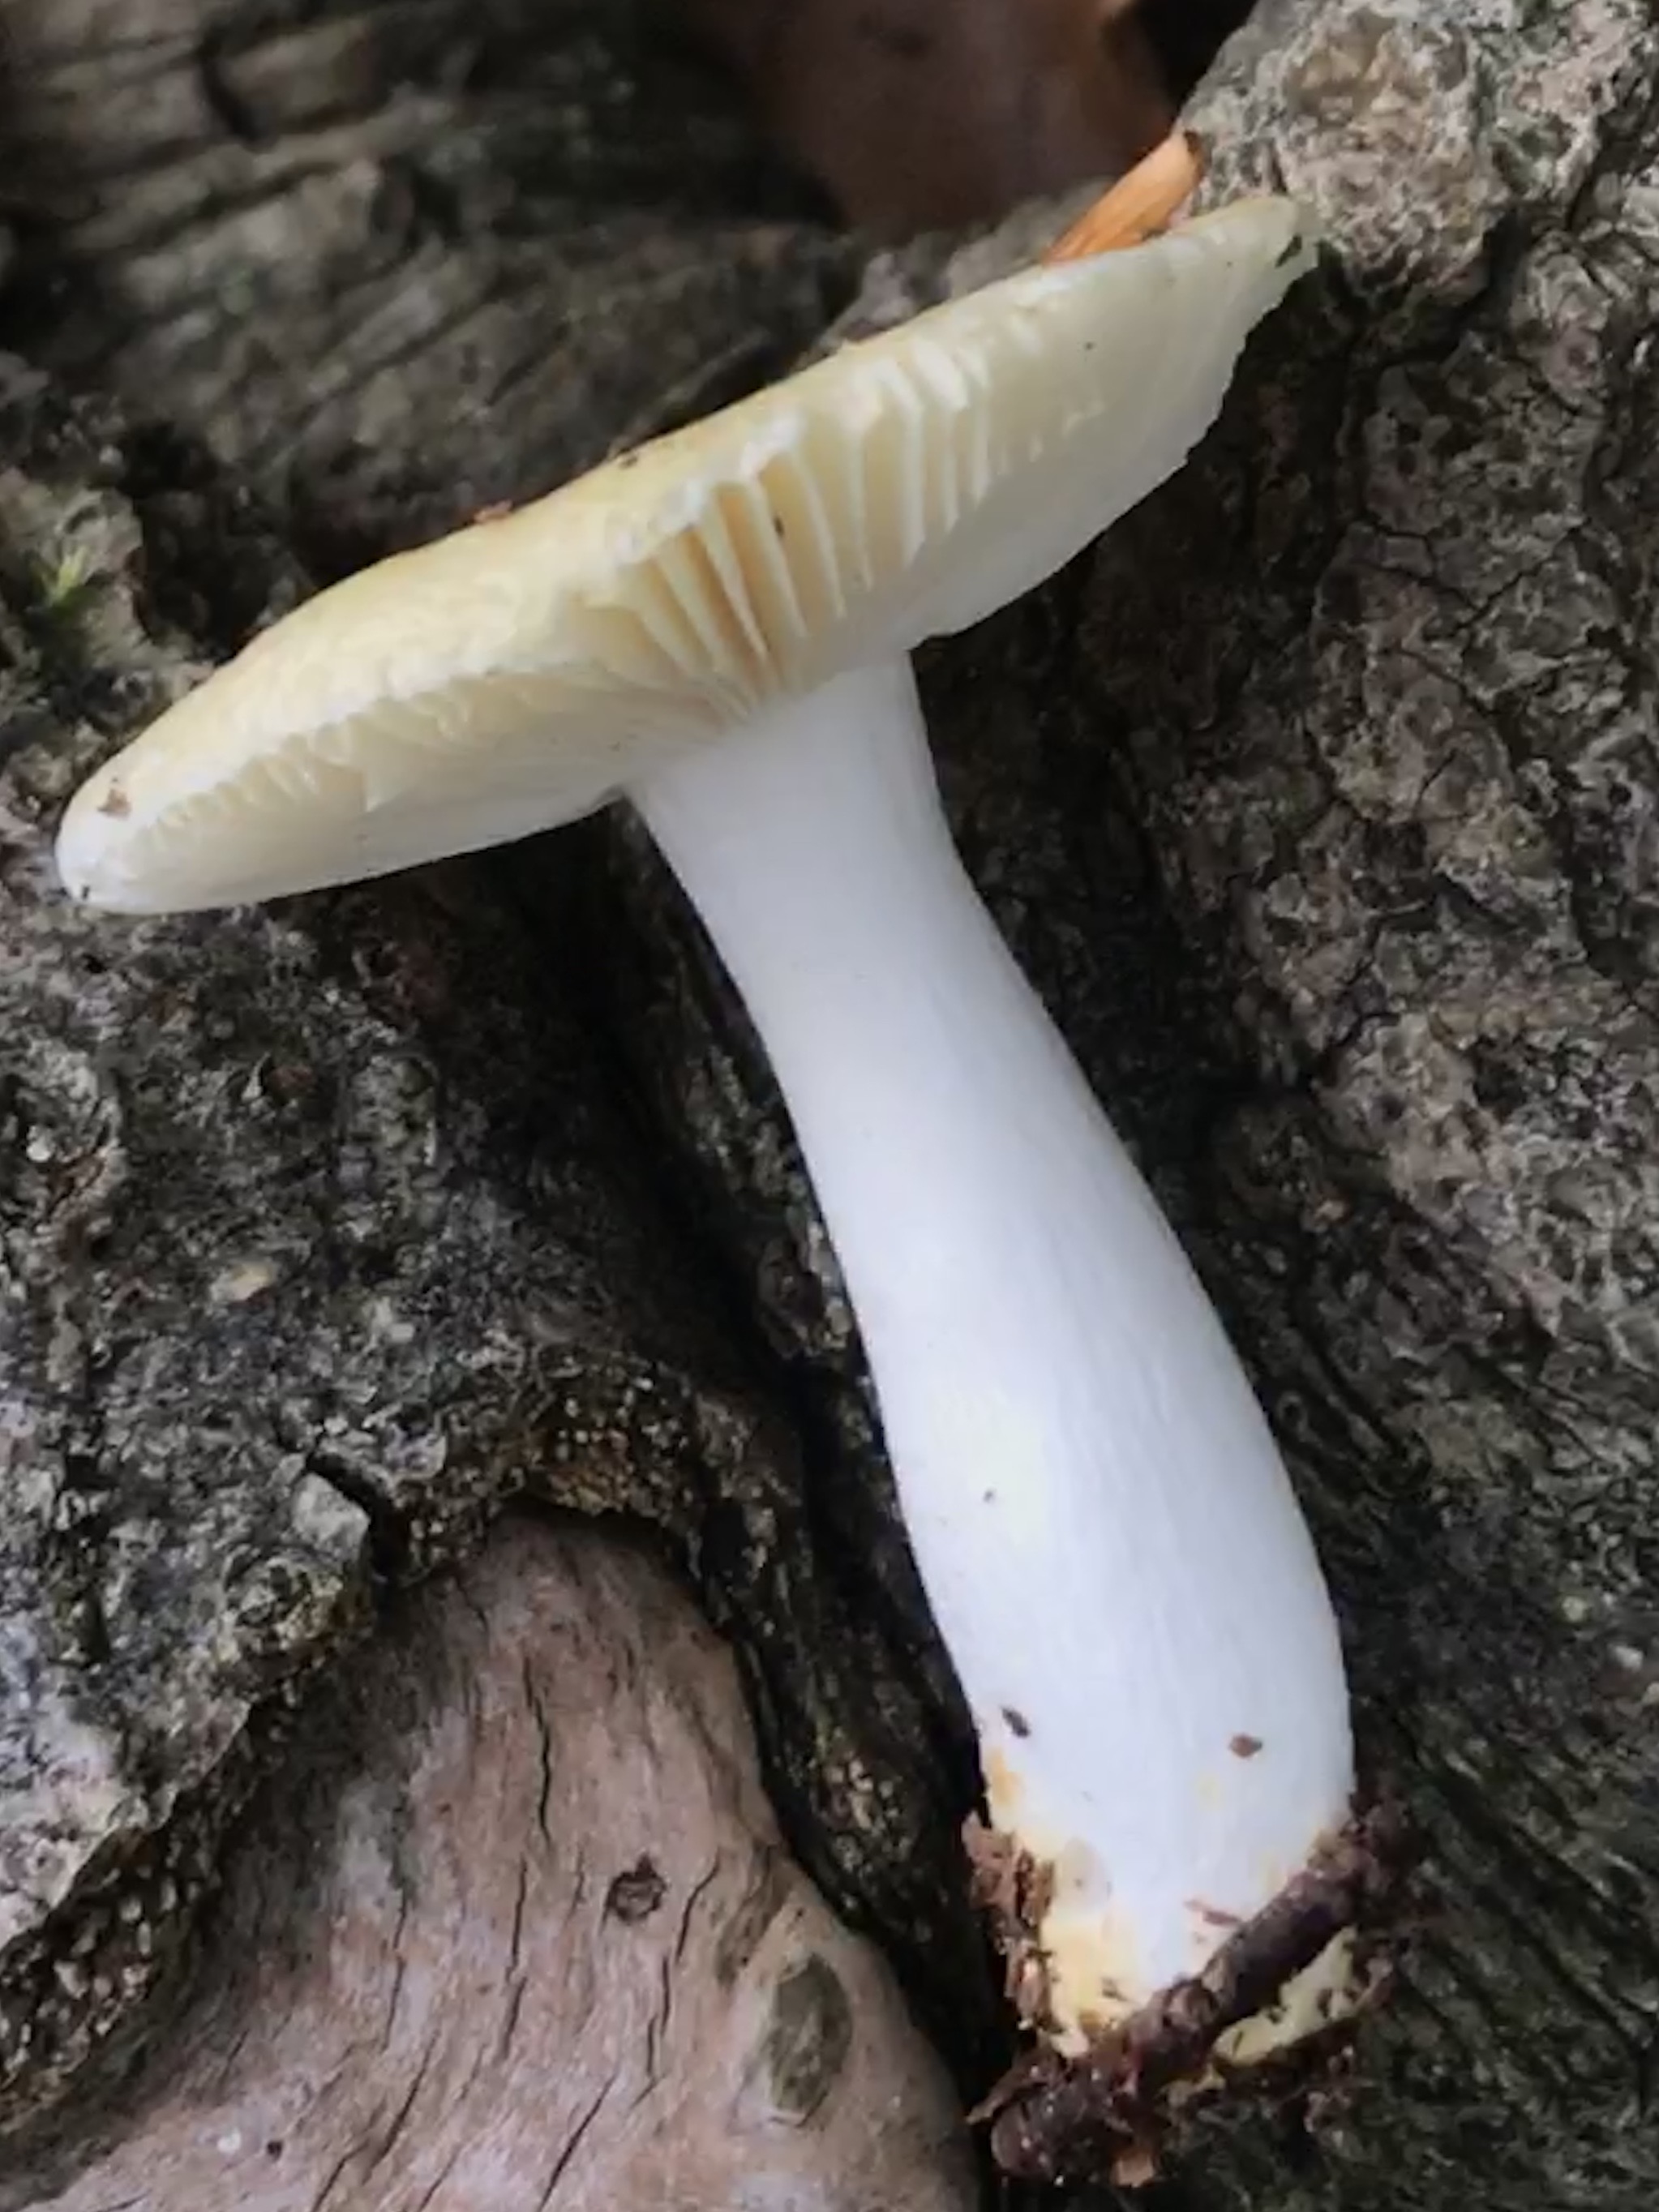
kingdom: Fungi
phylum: Basidiomycota
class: Agaricomycetes
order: Russulales
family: Russulaceae
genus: Russula
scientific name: Russula solaris
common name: sol-skørhat
